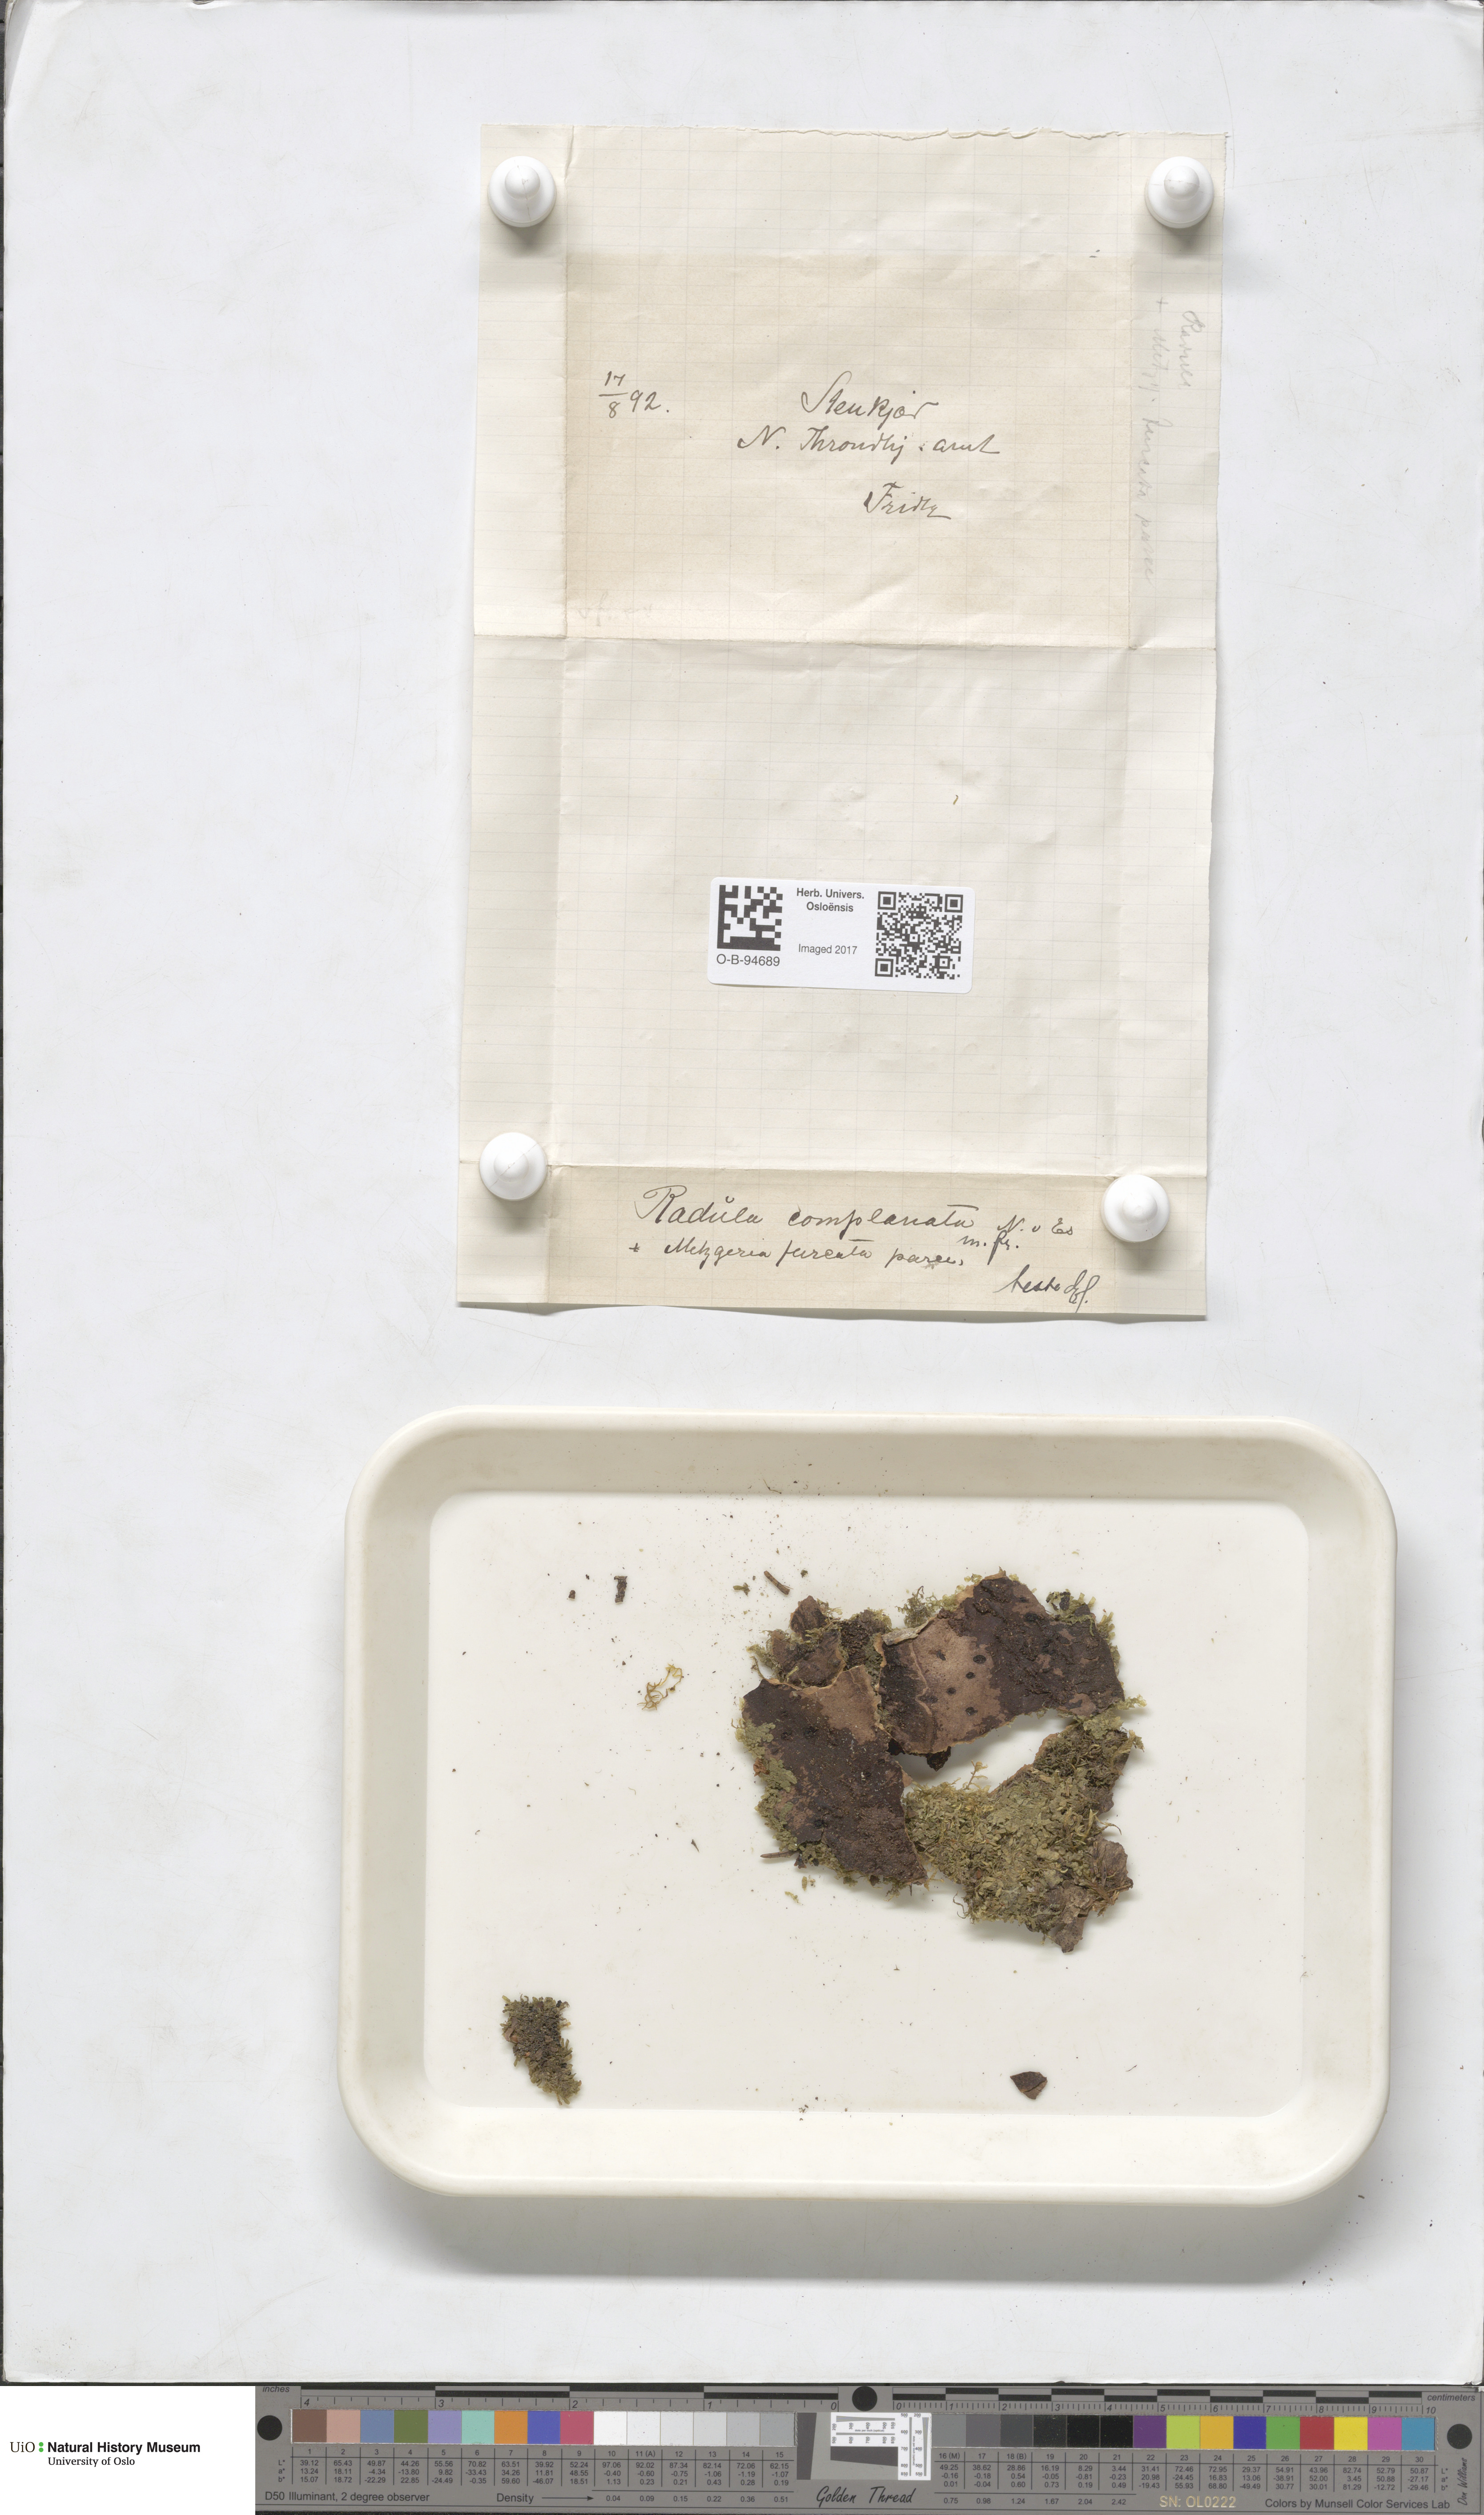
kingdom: Plantae
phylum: Marchantiophyta
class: Jungermanniopsida
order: Metzgeriales
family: Metzgeriaceae
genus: Metzgeria
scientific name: Metzgeria furcata
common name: Forked veilwort
